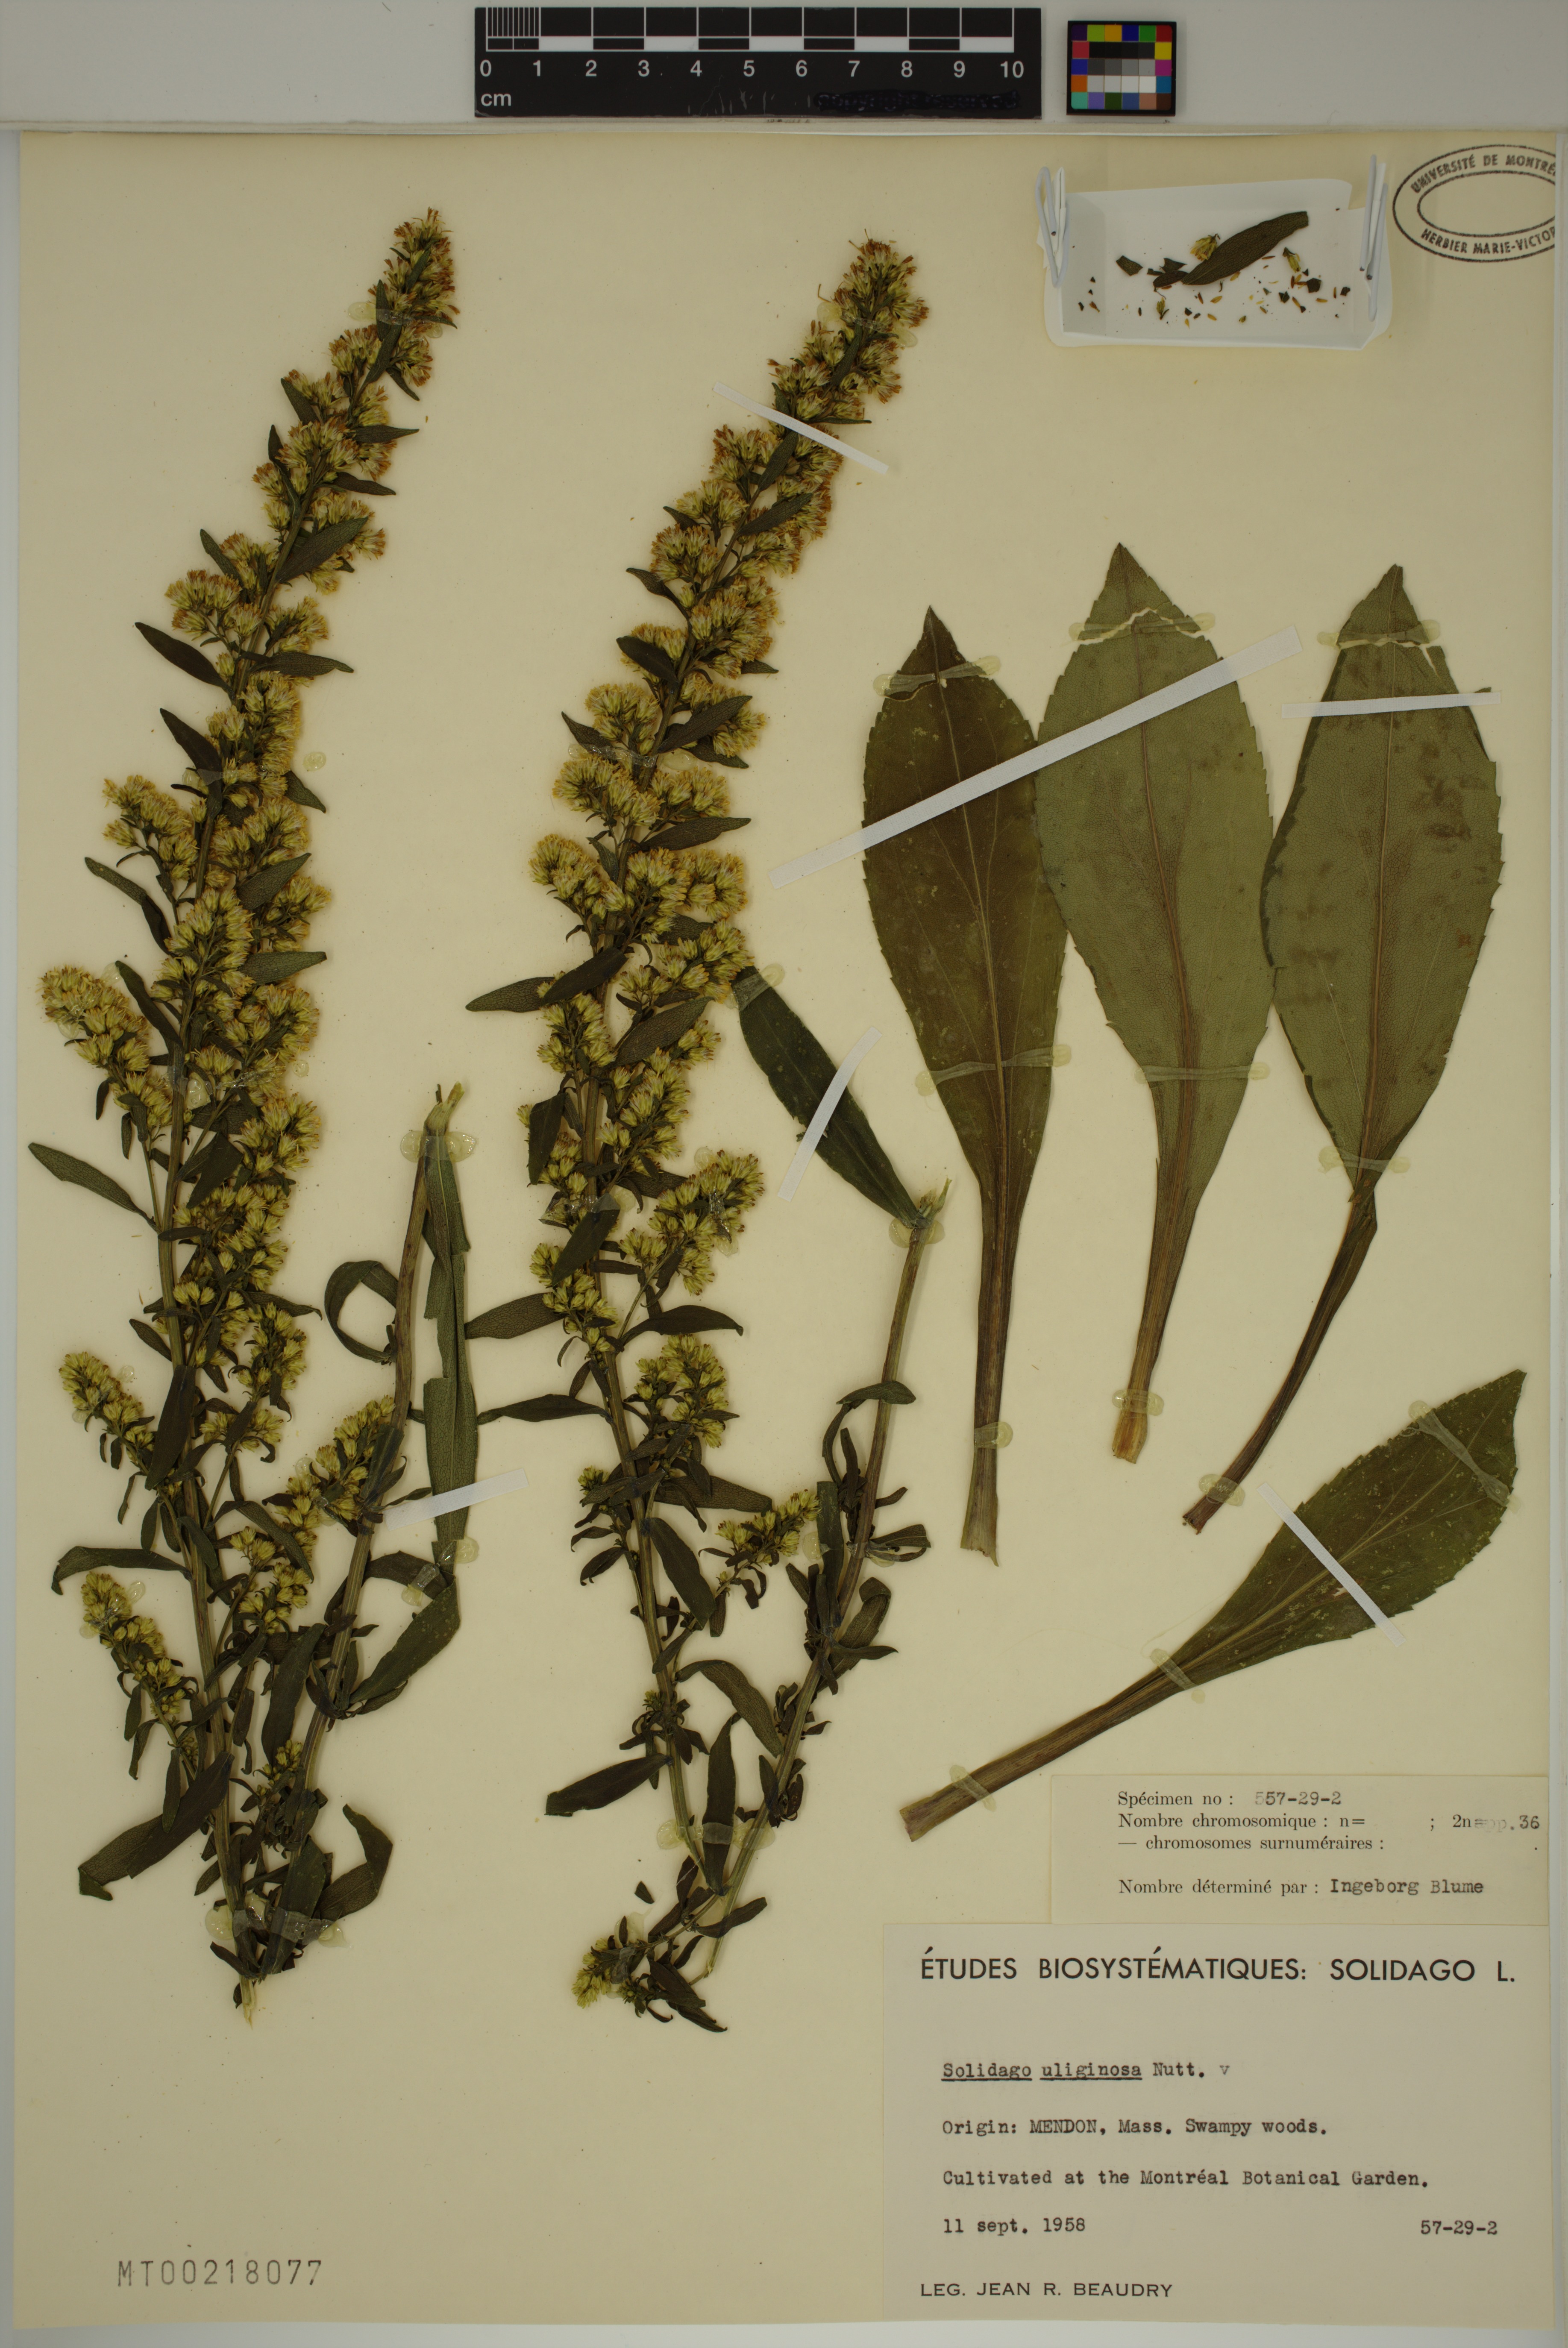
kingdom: Plantae
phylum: Tracheophyta
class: Magnoliopsida
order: Asterales
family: Asteraceae
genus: Solidago
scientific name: Solidago uliginosa
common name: Bog goldenrod
